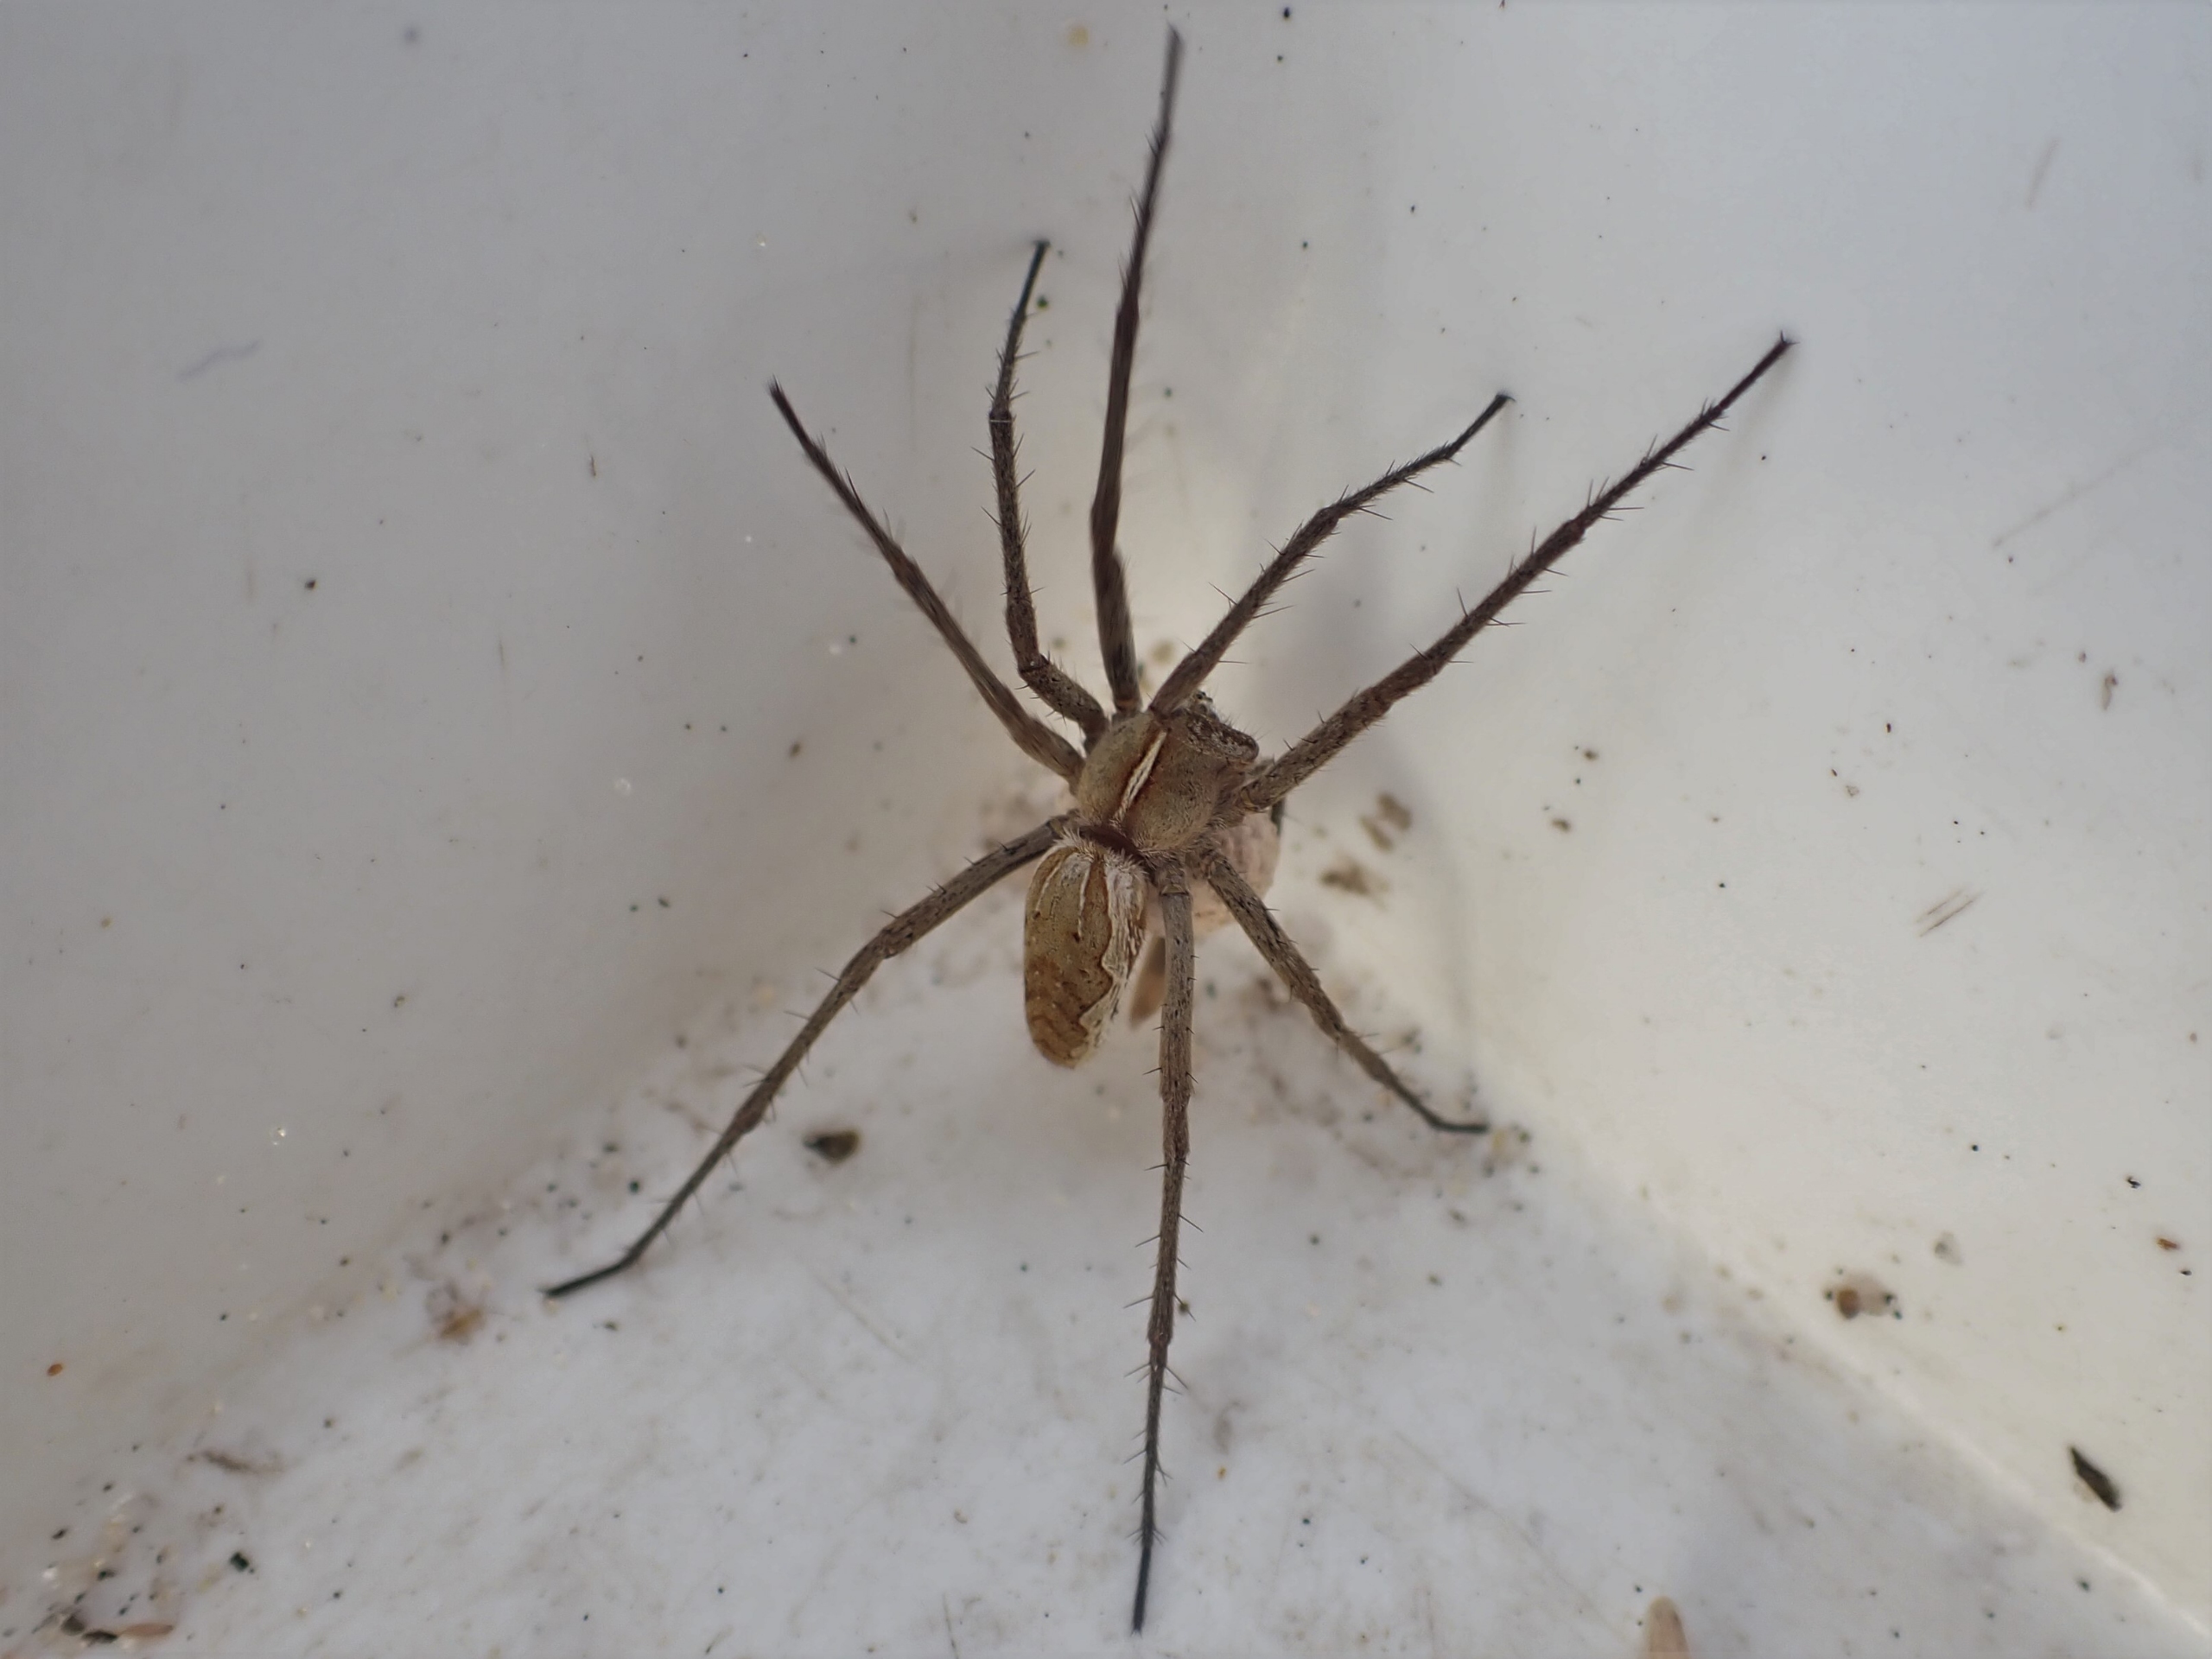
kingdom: Animalia
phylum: Arthropoda
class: Arachnida
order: Araneae
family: Pisauridae
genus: Pisaura
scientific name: Pisaura mirabilis
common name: Almindelig rovedderkop
